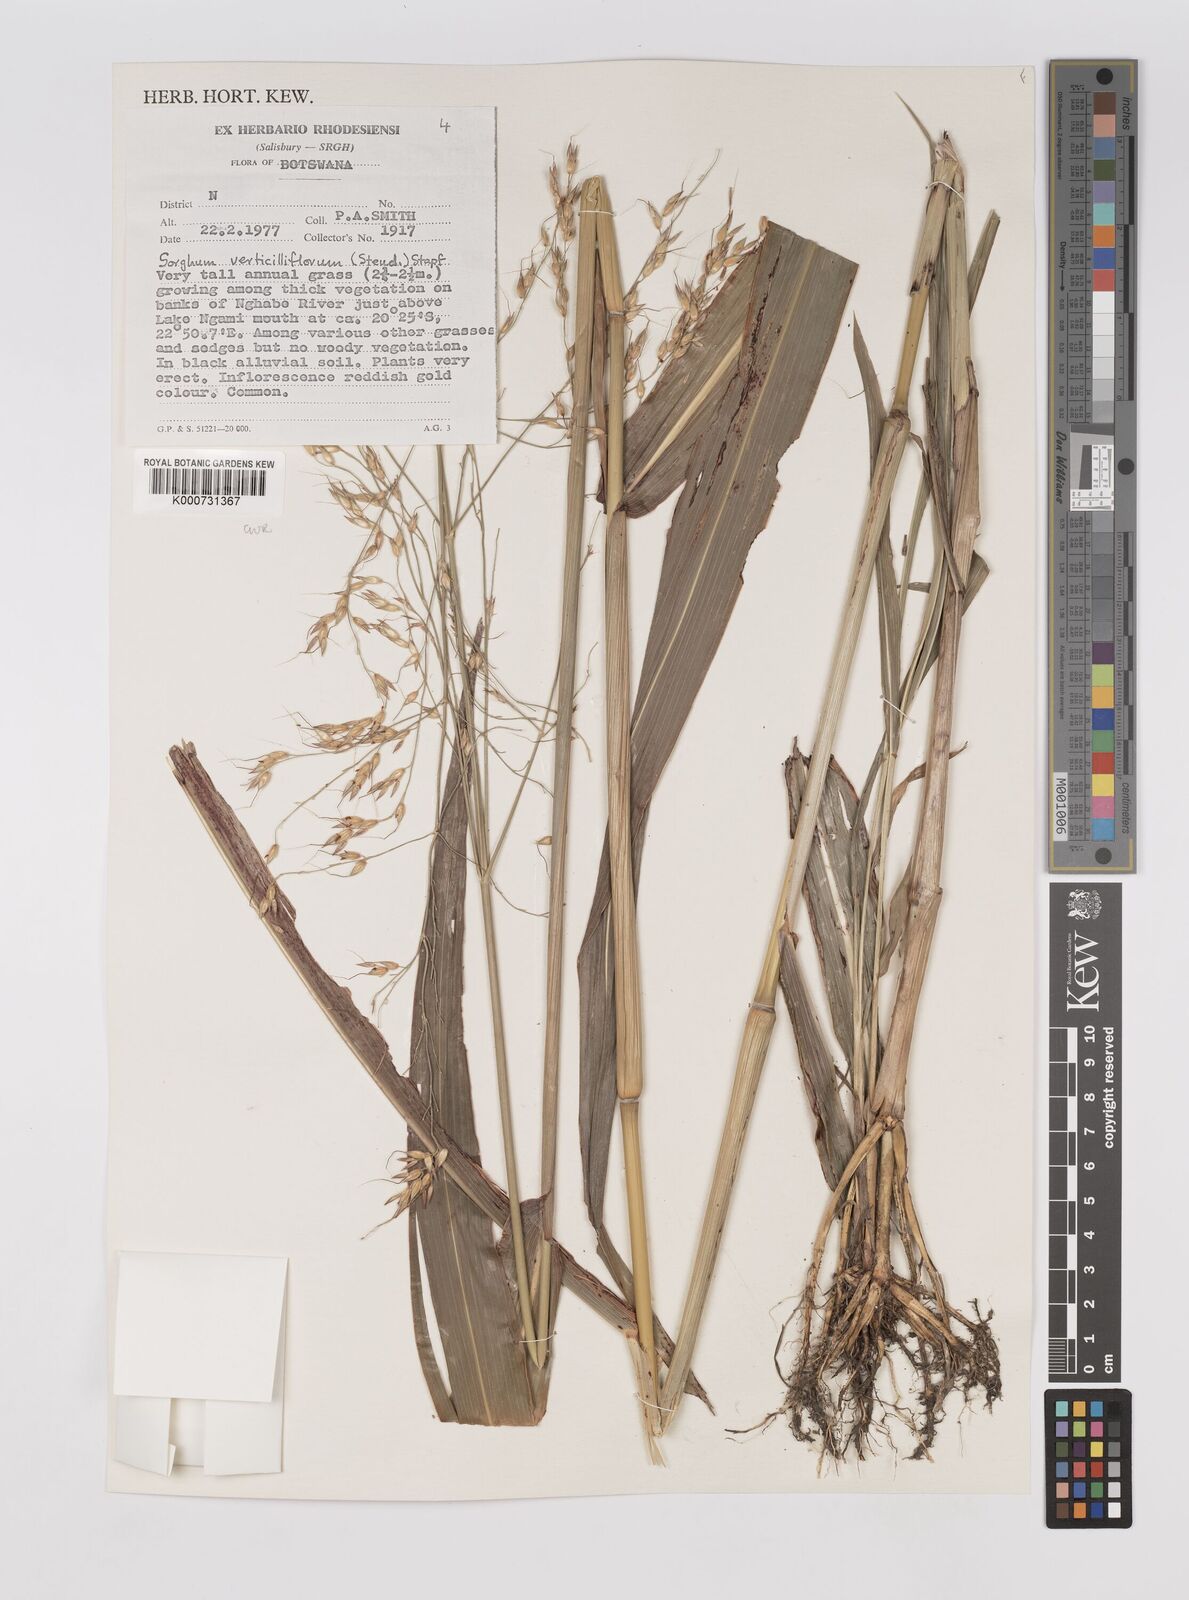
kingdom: Plantae
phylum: Tracheophyta
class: Liliopsida
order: Poales
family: Poaceae
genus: Sorghum
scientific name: Sorghum arundinaceum
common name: Sorghum
